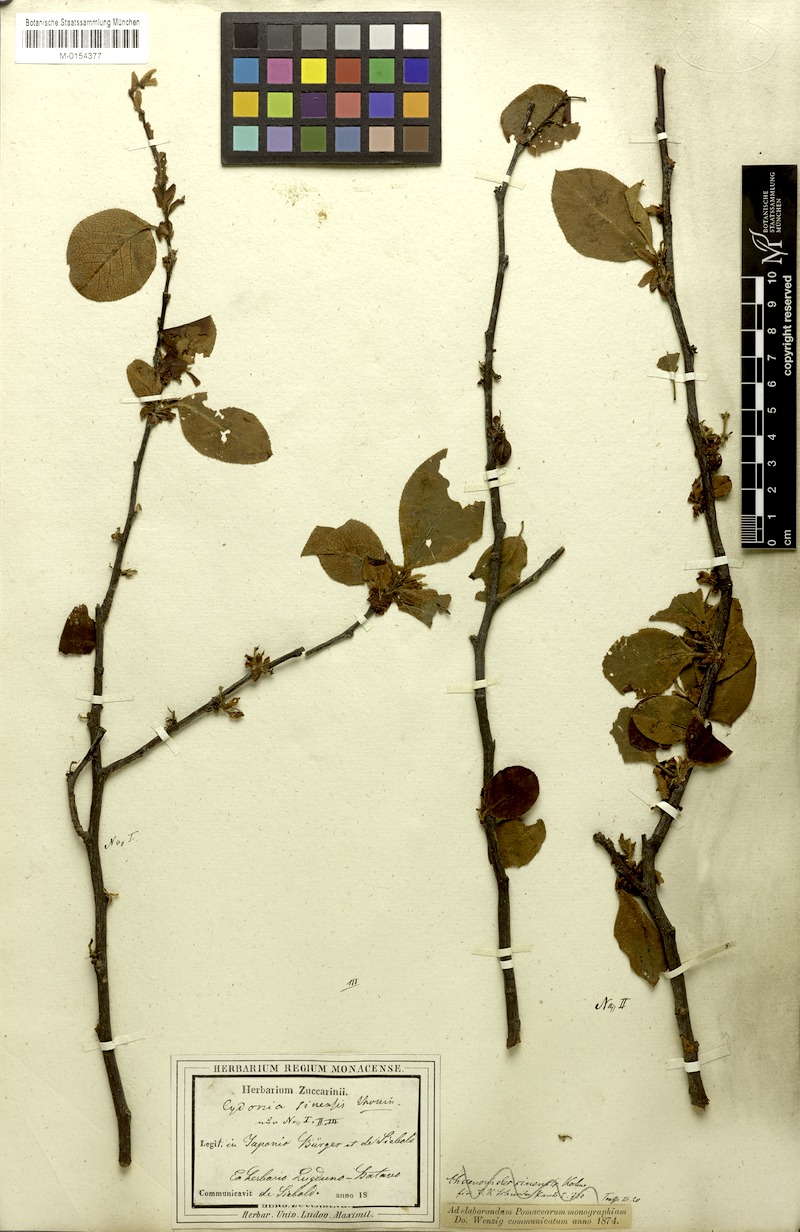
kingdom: Plantae
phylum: Tracheophyta
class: Magnoliopsida
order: Rosales
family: Rosaceae
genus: Pseudocydonia
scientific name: Pseudocydonia sinensis
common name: Chinese-quince
